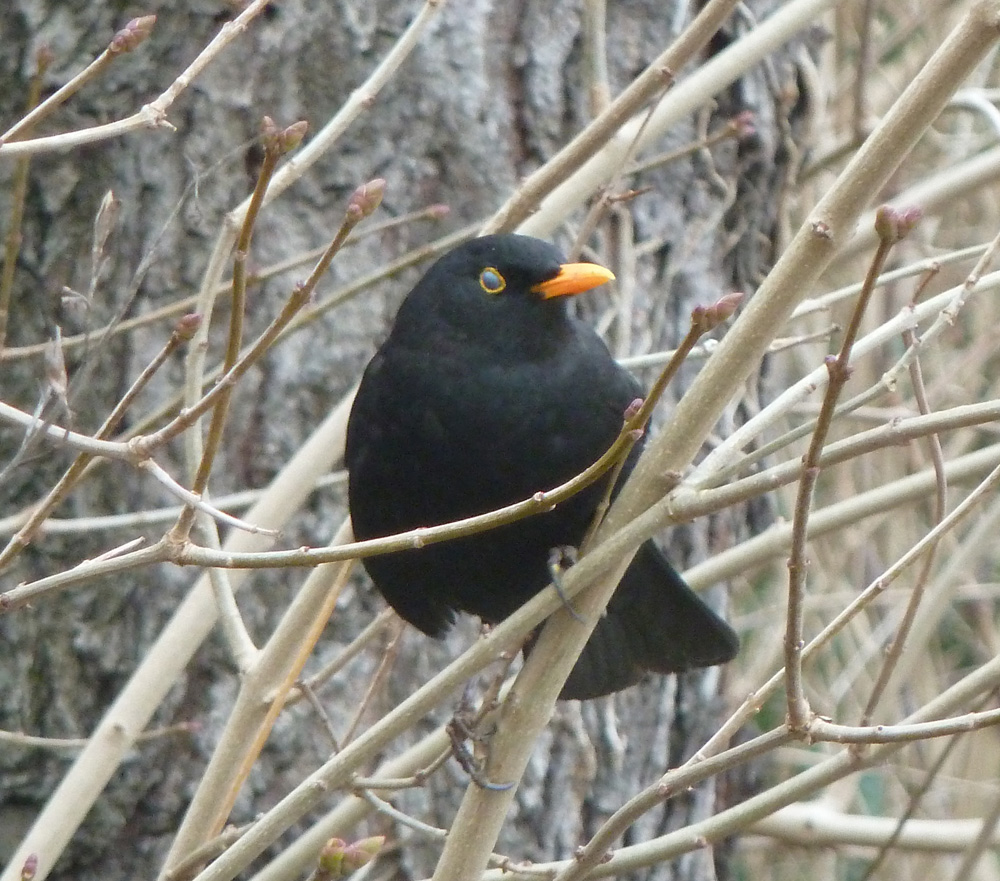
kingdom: Animalia
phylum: Chordata
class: Aves
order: Passeriformes
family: Turdidae
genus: Turdus
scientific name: Turdus merula
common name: Common blackbird
